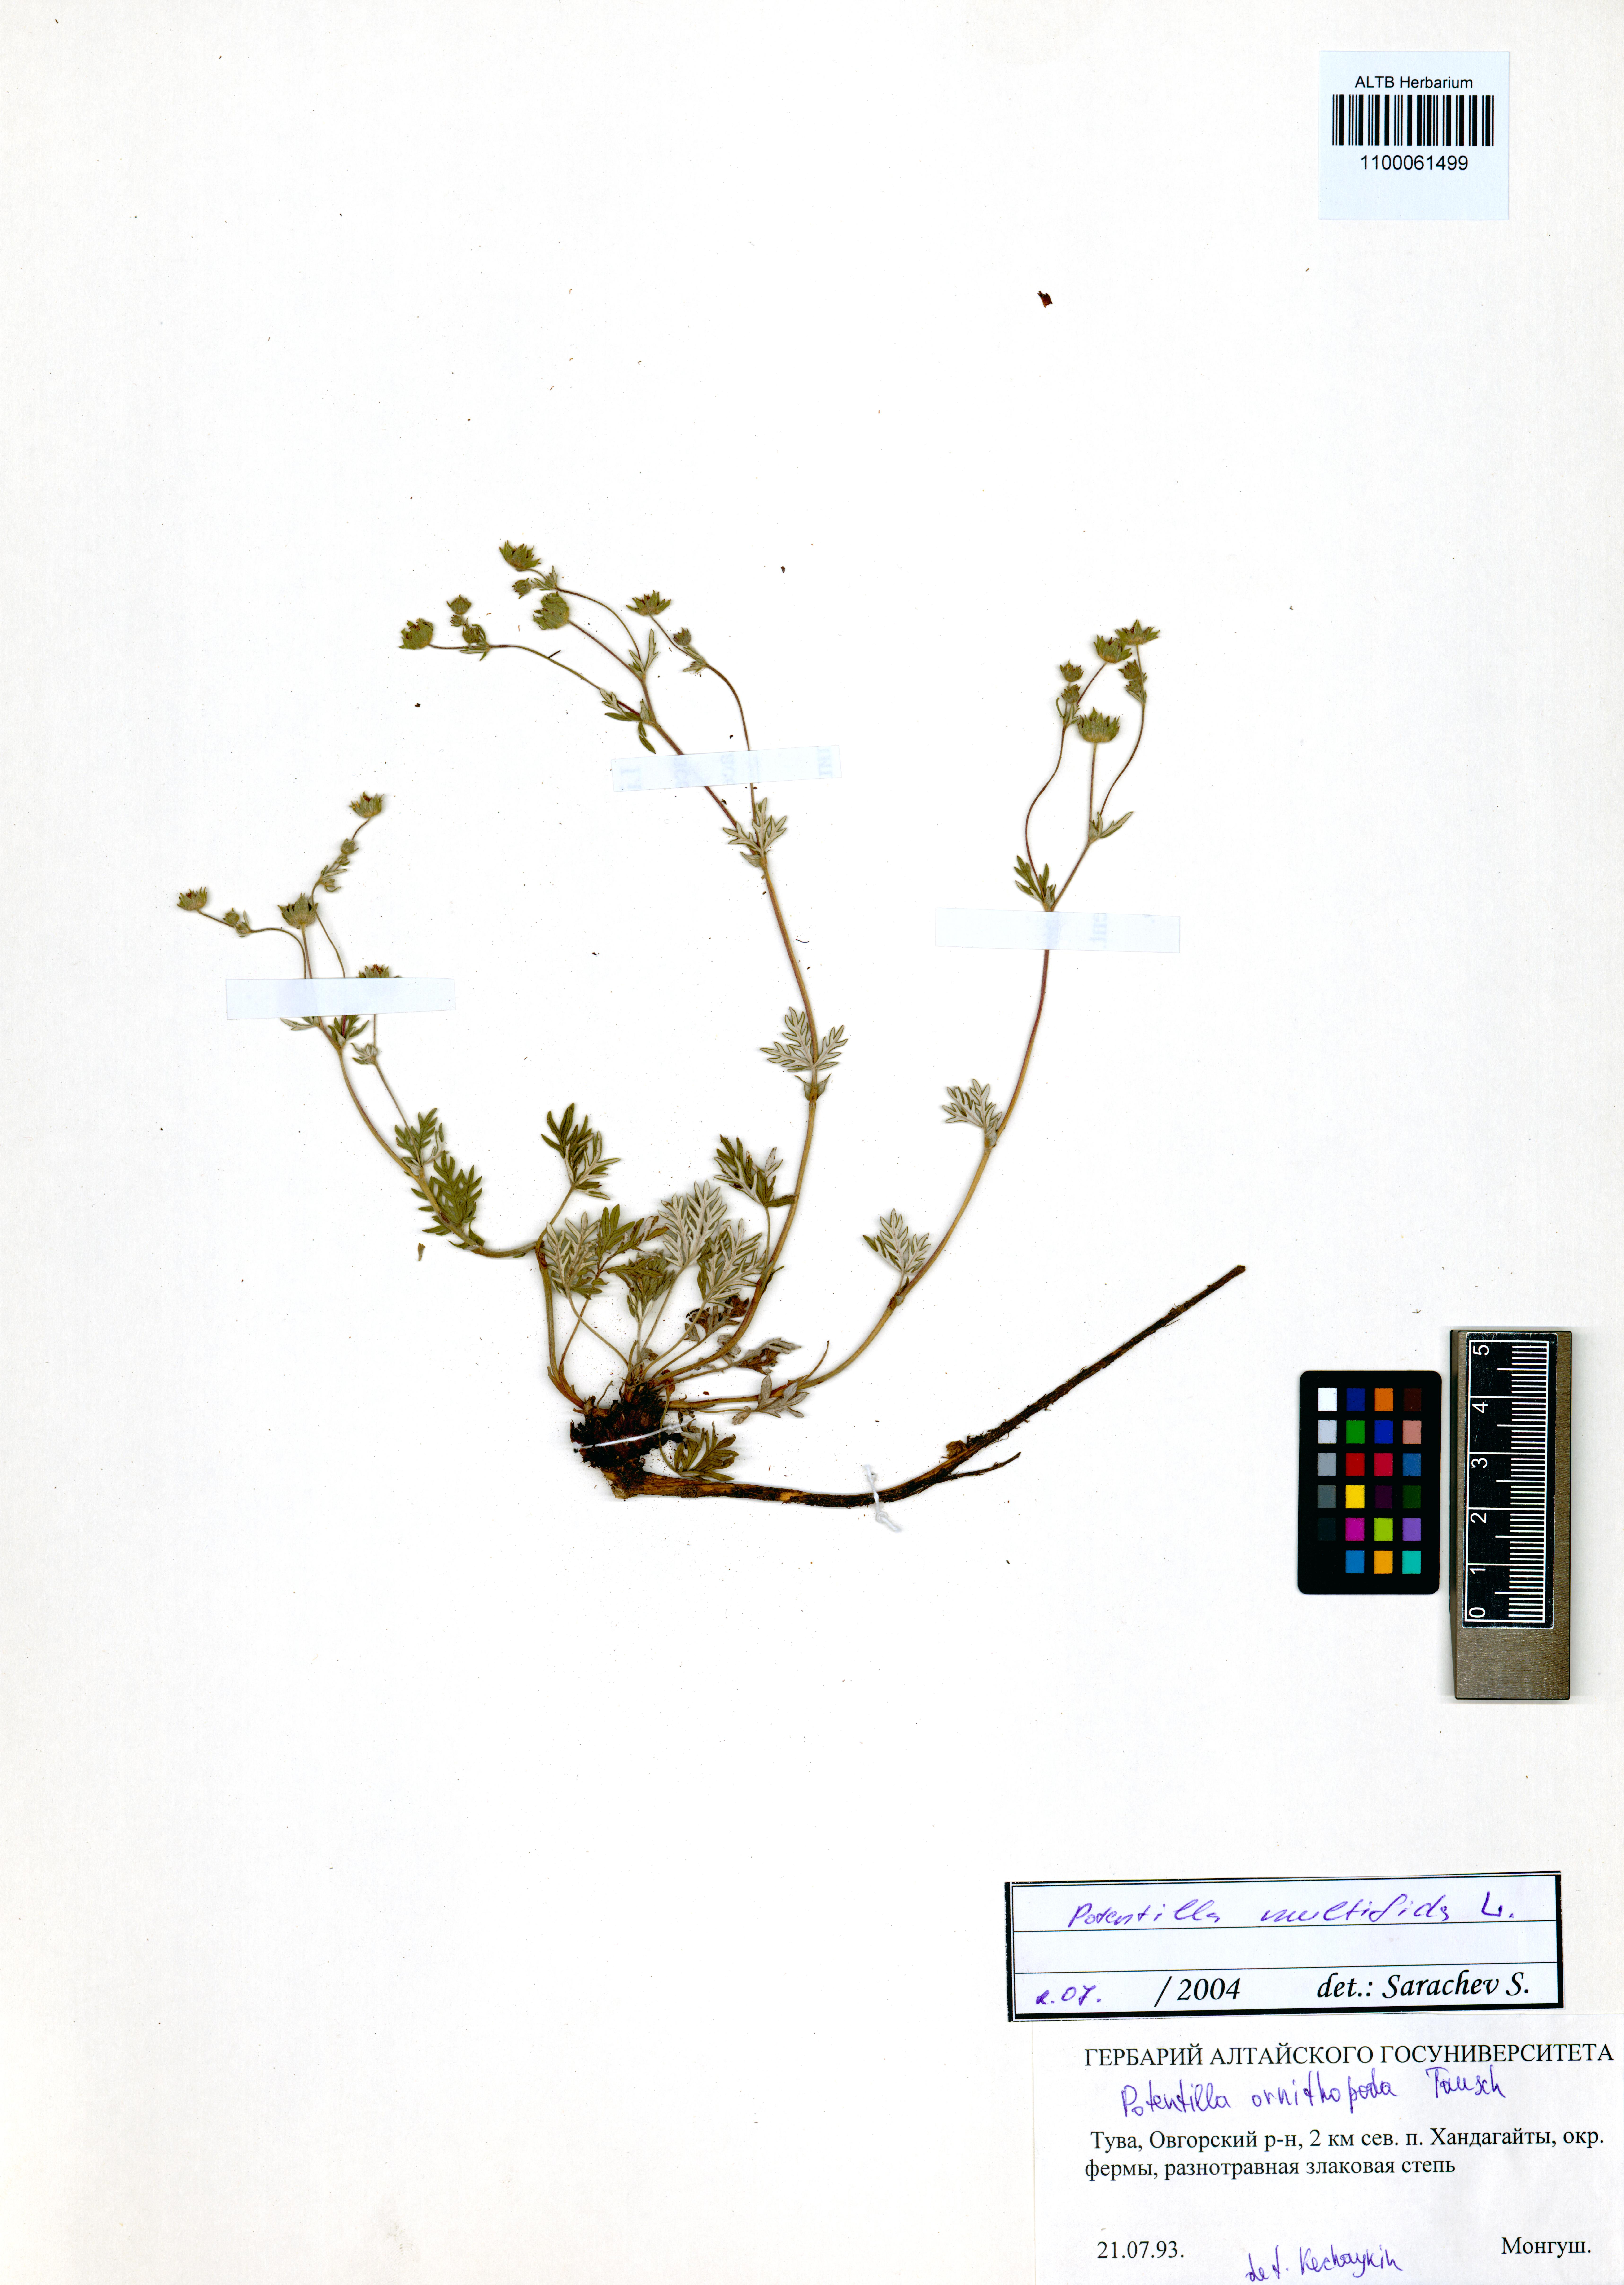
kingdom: Plantae
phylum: Tracheophyta
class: Magnoliopsida
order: Rosales
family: Rosaceae
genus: Potentilla
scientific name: Potentilla ornithopoda
